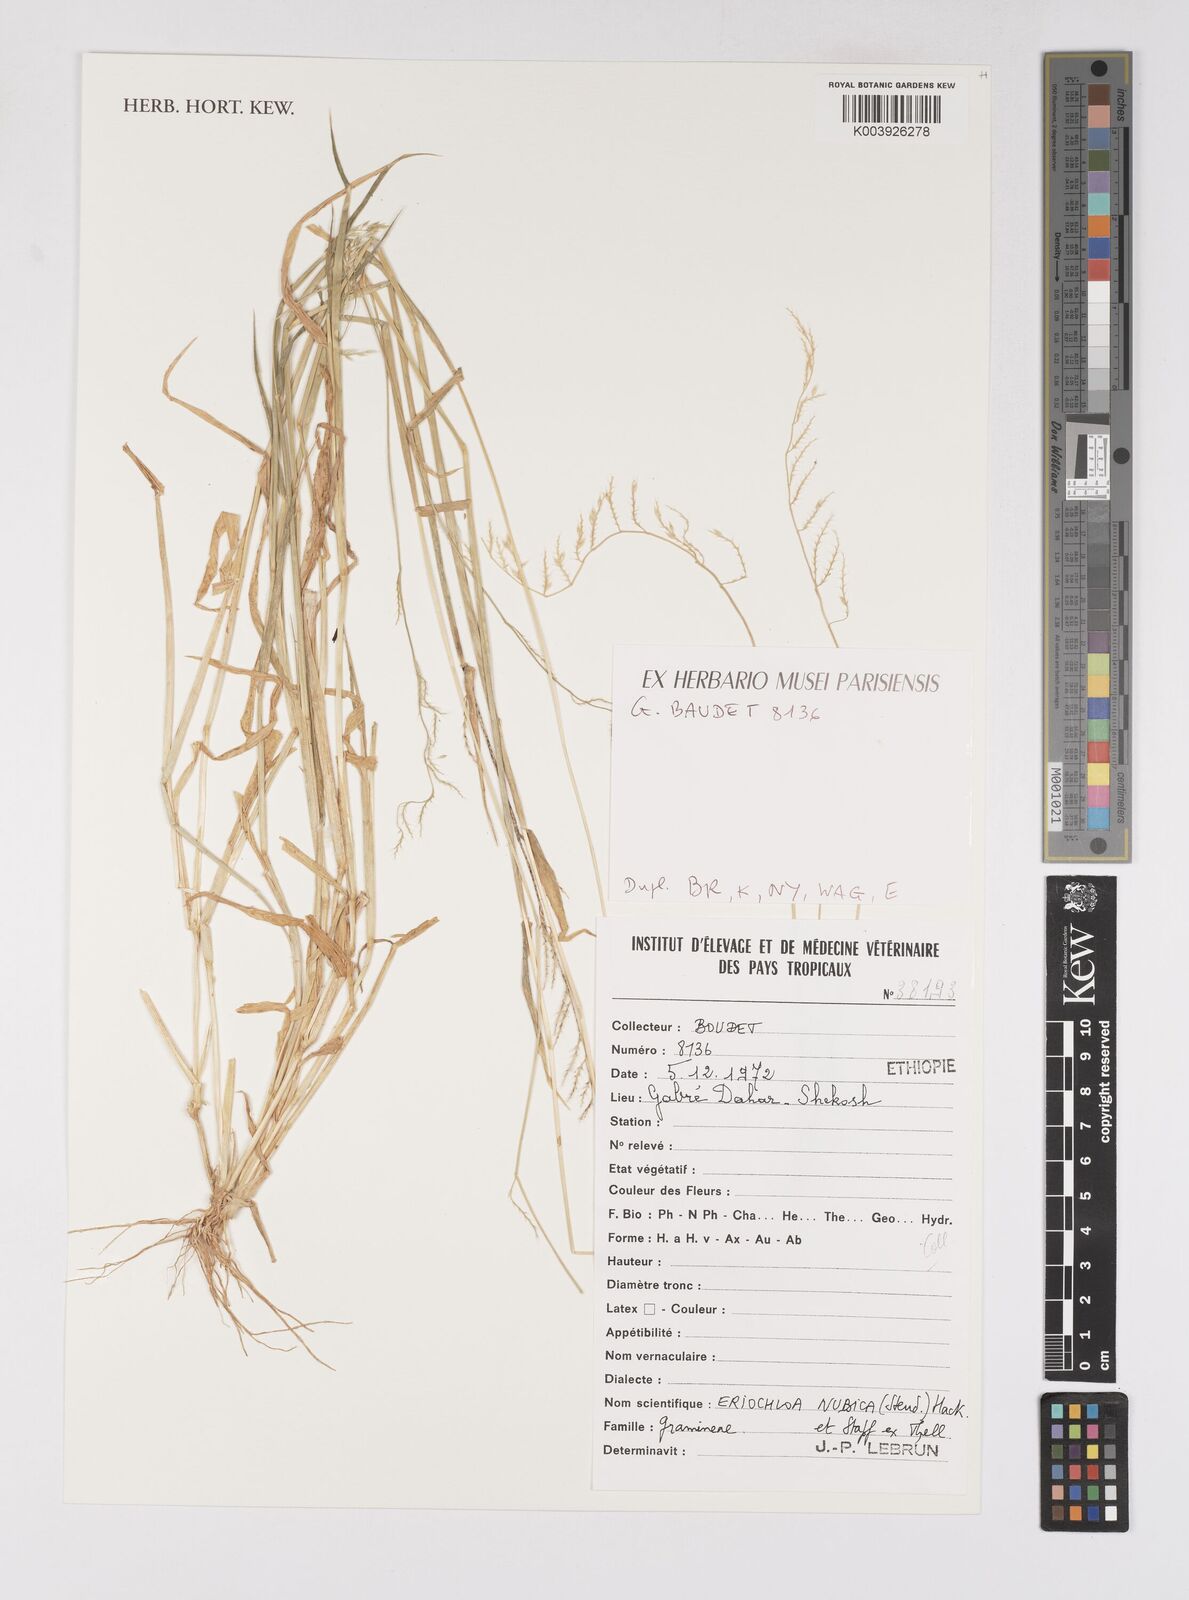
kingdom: Plantae
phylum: Tracheophyta
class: Liliopsida
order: Poales
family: Poaceae
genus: Eriochloa
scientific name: Eriochloa barbatus
